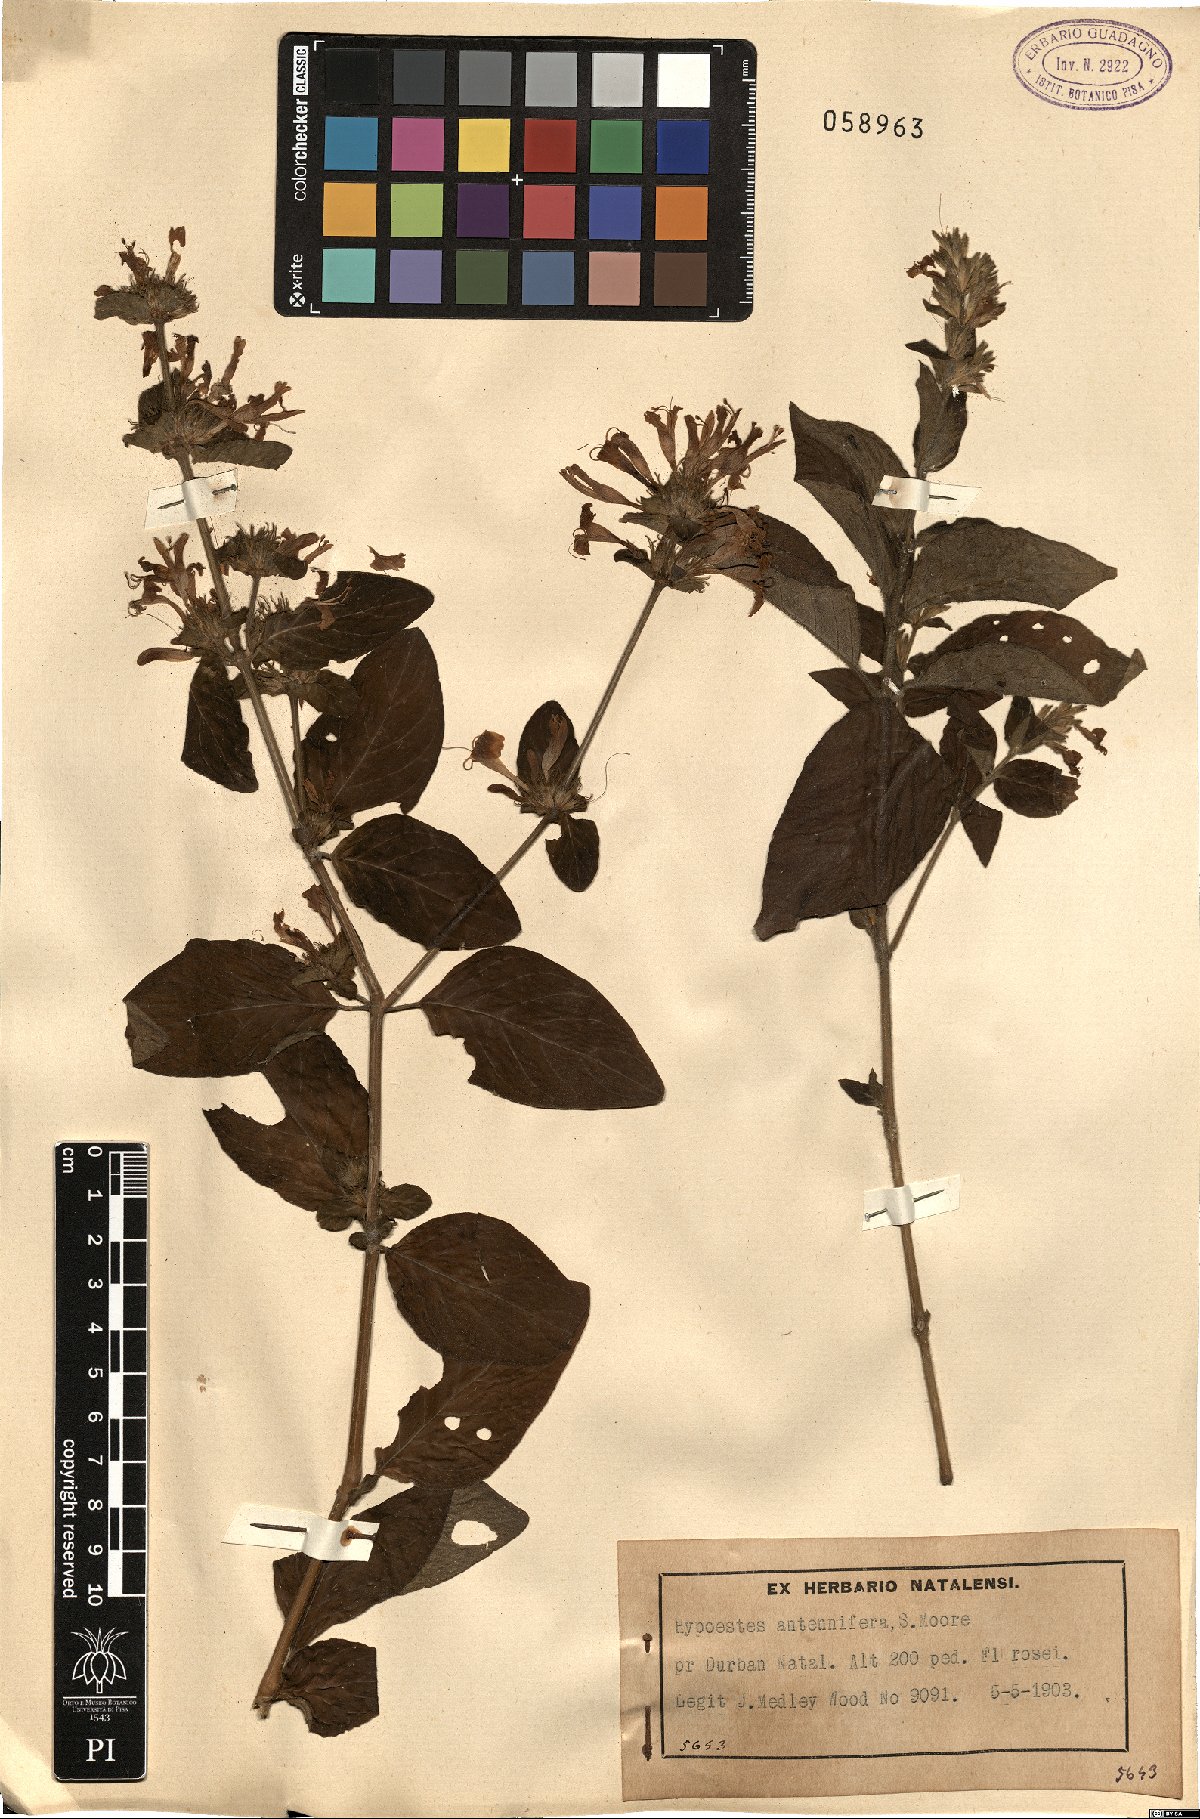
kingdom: Plantae
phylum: Tracheophyta
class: Magnoliopsida
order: Lamiales
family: Acanthaceae
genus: Hypoestes
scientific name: Hypoestes aristata
